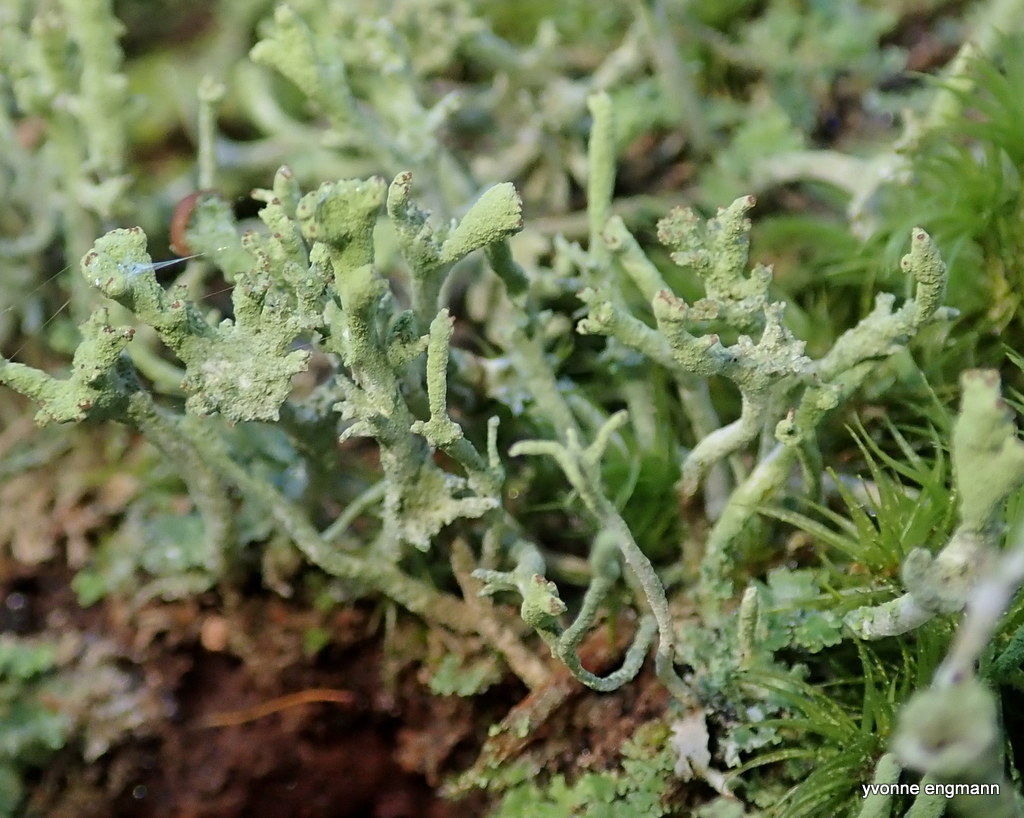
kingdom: Fungi
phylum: Ascomycota
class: Lecanoromycetes
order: Lecanorales
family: Cladoniaceae
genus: Cladonia
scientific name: Cladonia
